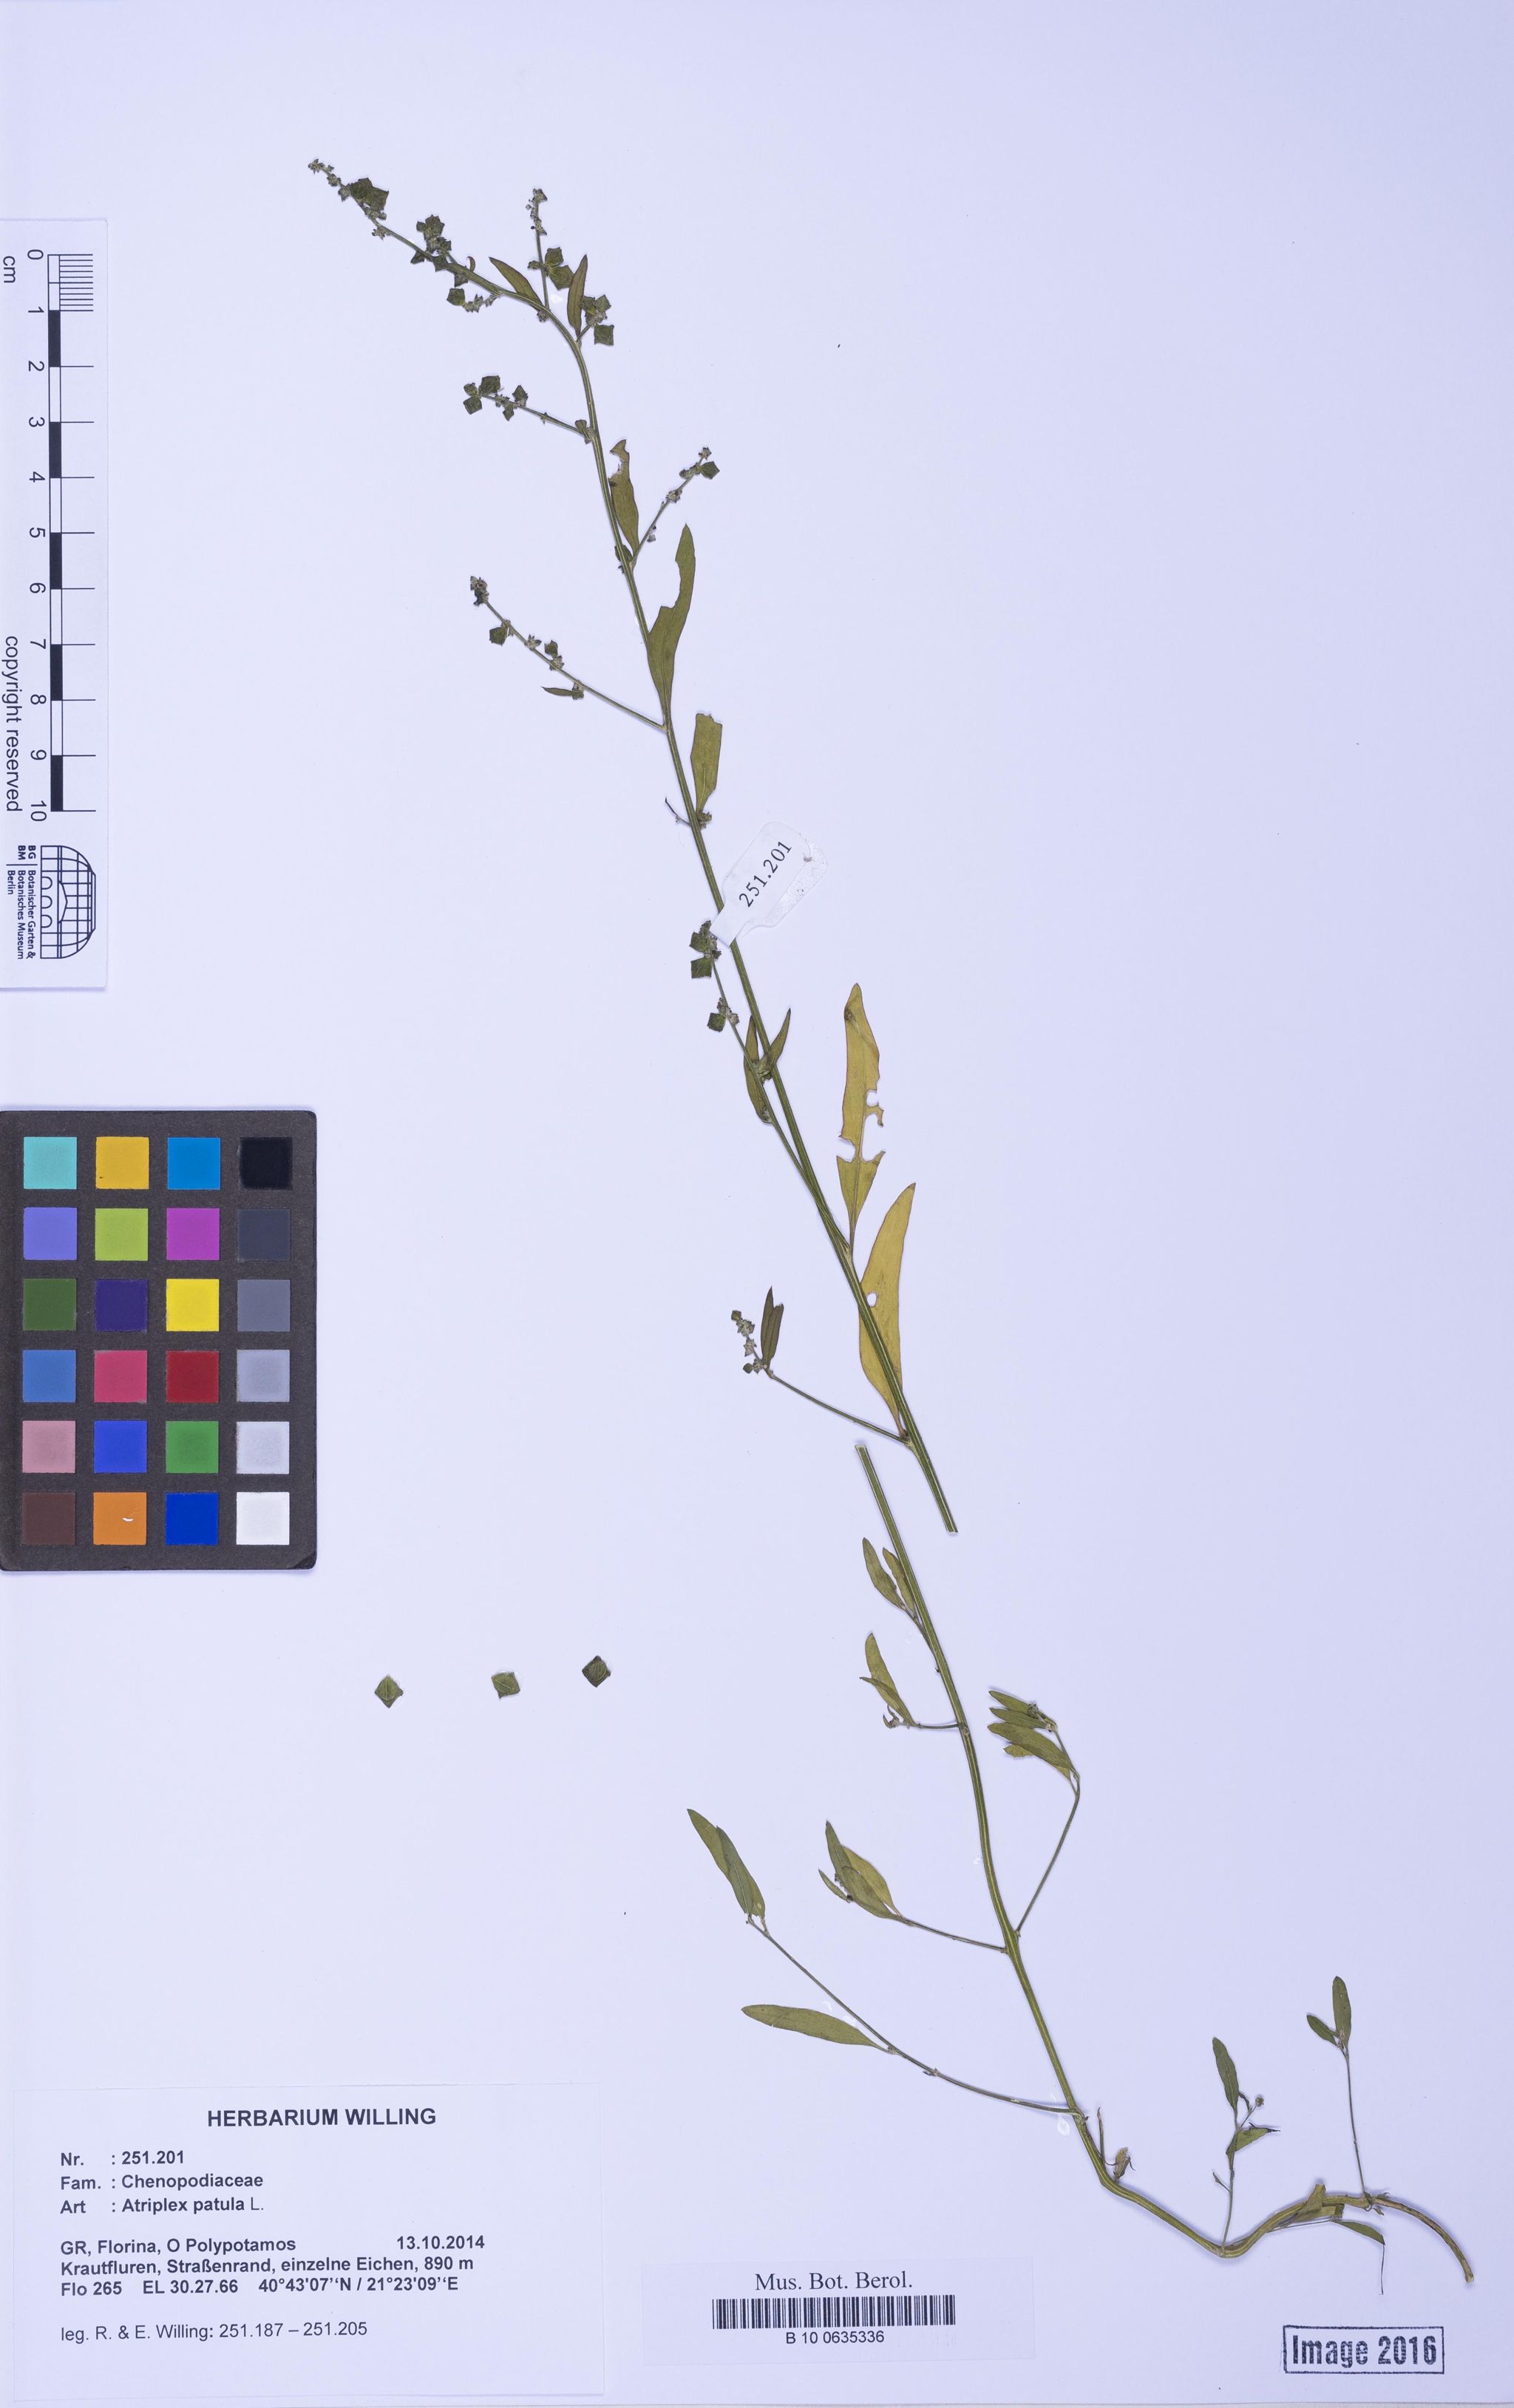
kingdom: Plantae
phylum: Tracheophyta
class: Magnoliopsida
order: Caryophyllales
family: Amaranthaceae
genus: Atriplex
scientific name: Atriplex patula
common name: Common orache
